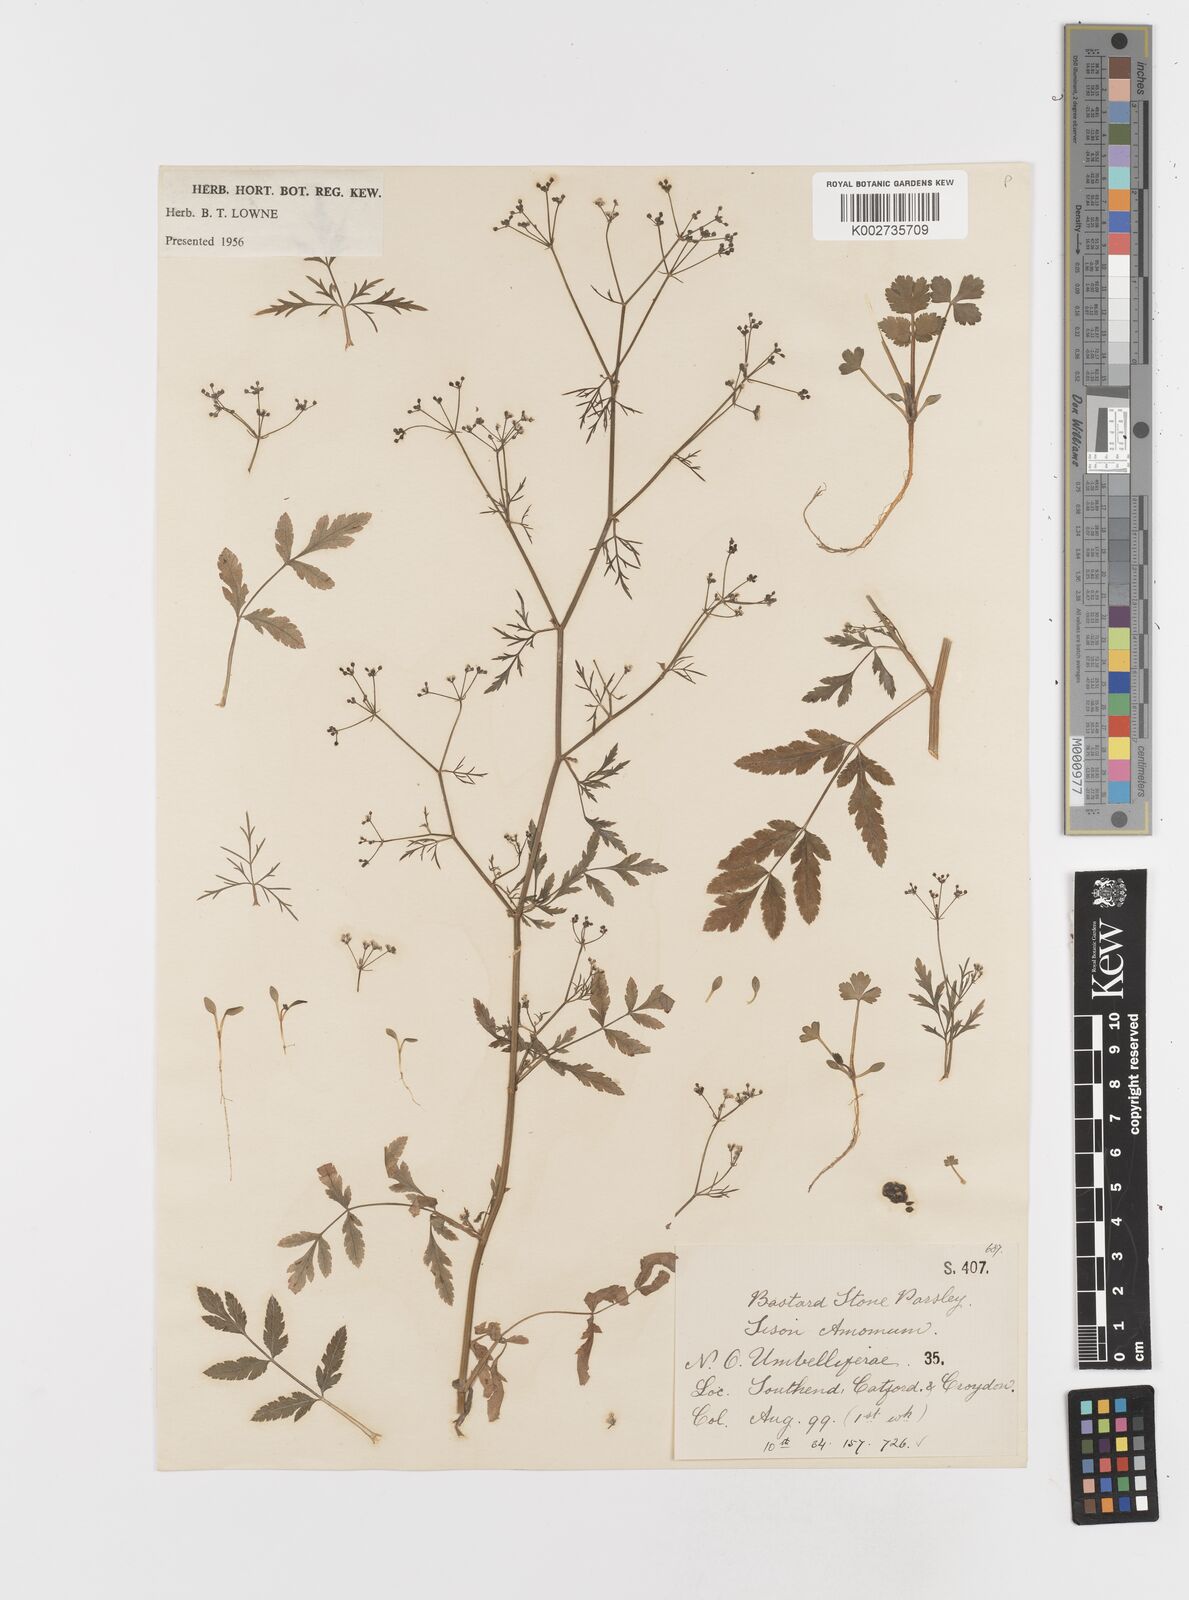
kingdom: Plantae
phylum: Tracheophyta
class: Magnoliopsida
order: Apiales
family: Apiaceae
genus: Sison
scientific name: Sison amomum
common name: Stone-parsley
